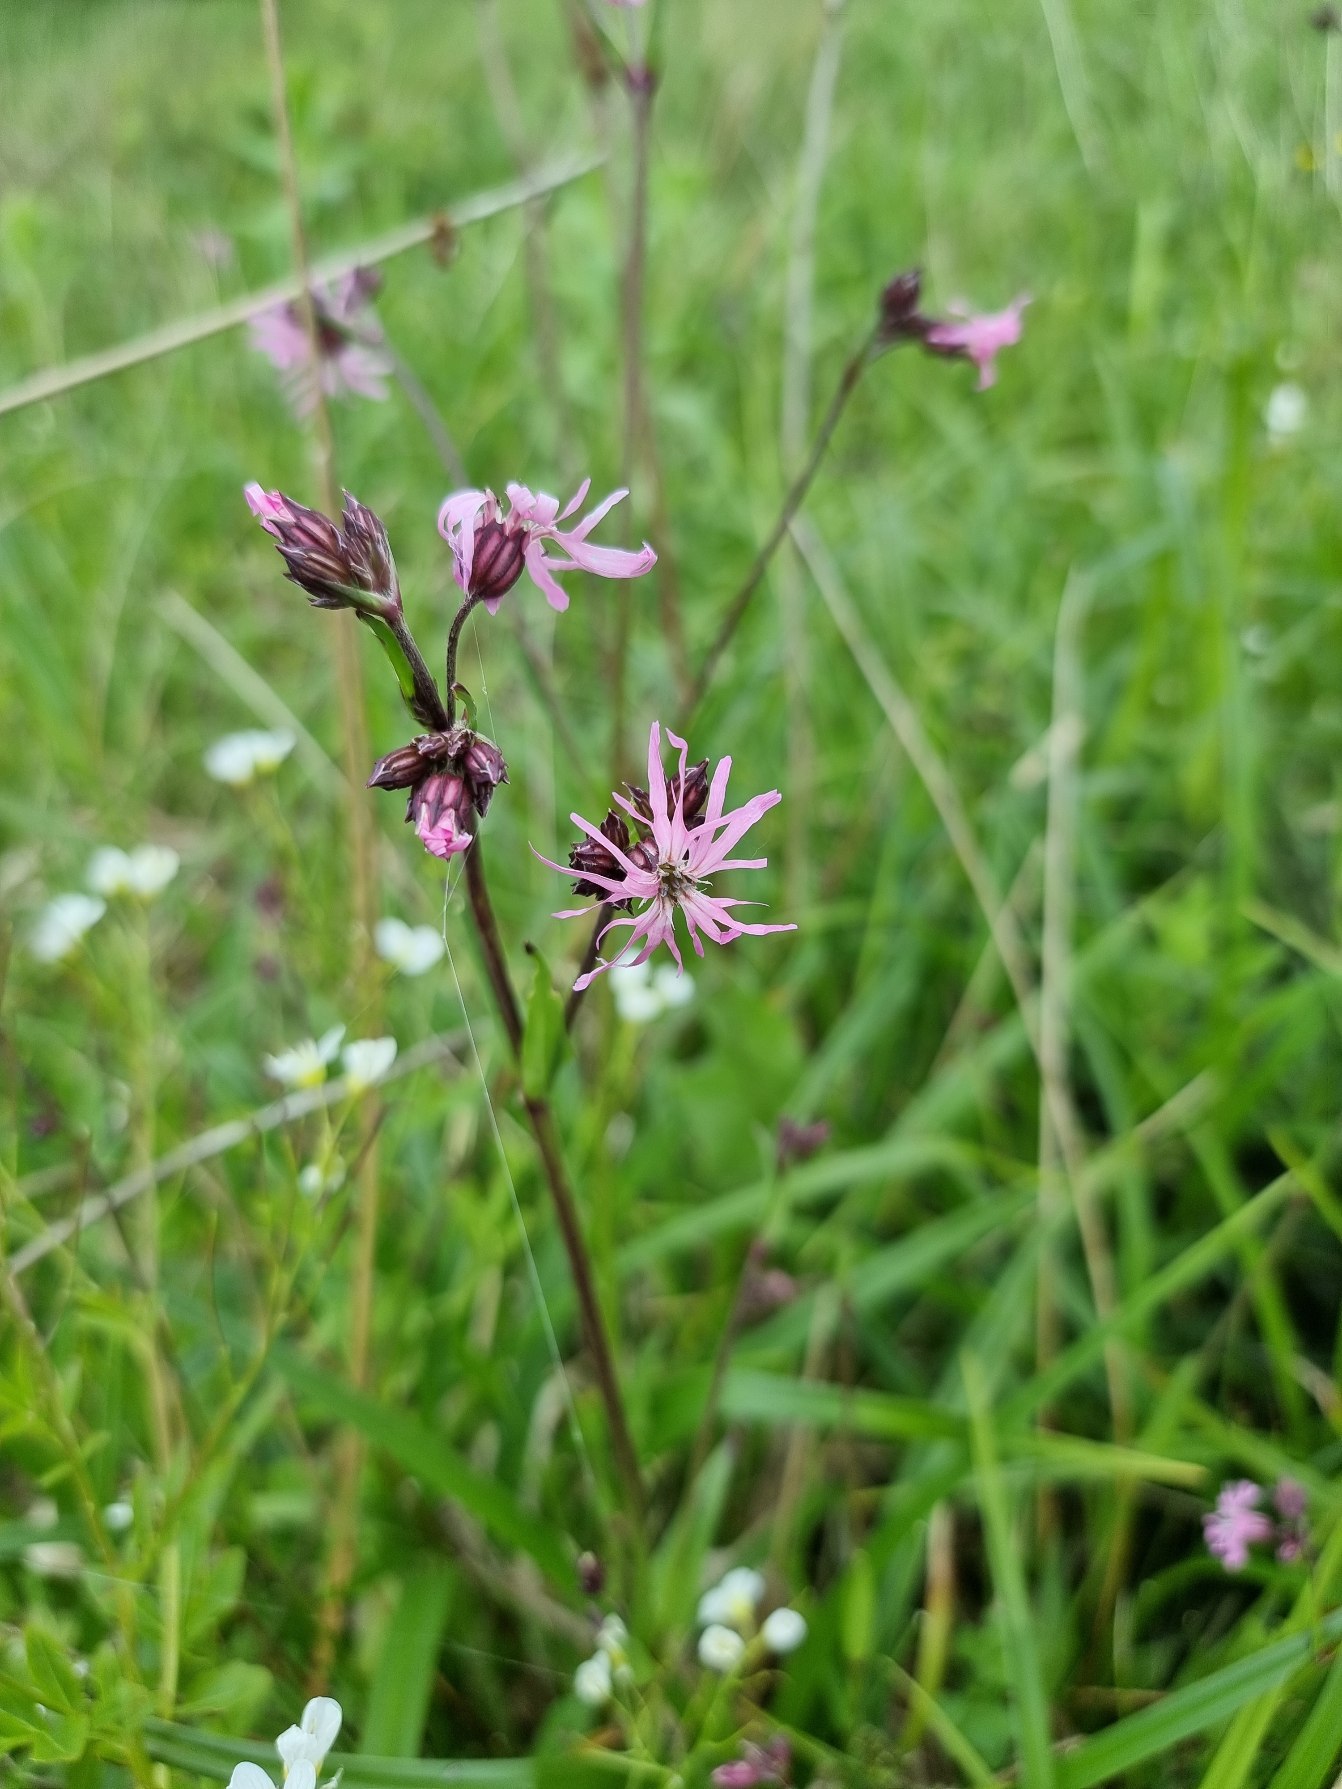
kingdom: Plantae
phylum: Tracheophyta
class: Magnoliopsida
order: Caryophyllales
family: Caryophyllaceae
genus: Silene
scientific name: Silene flos-cuculi
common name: Trævlekrone
